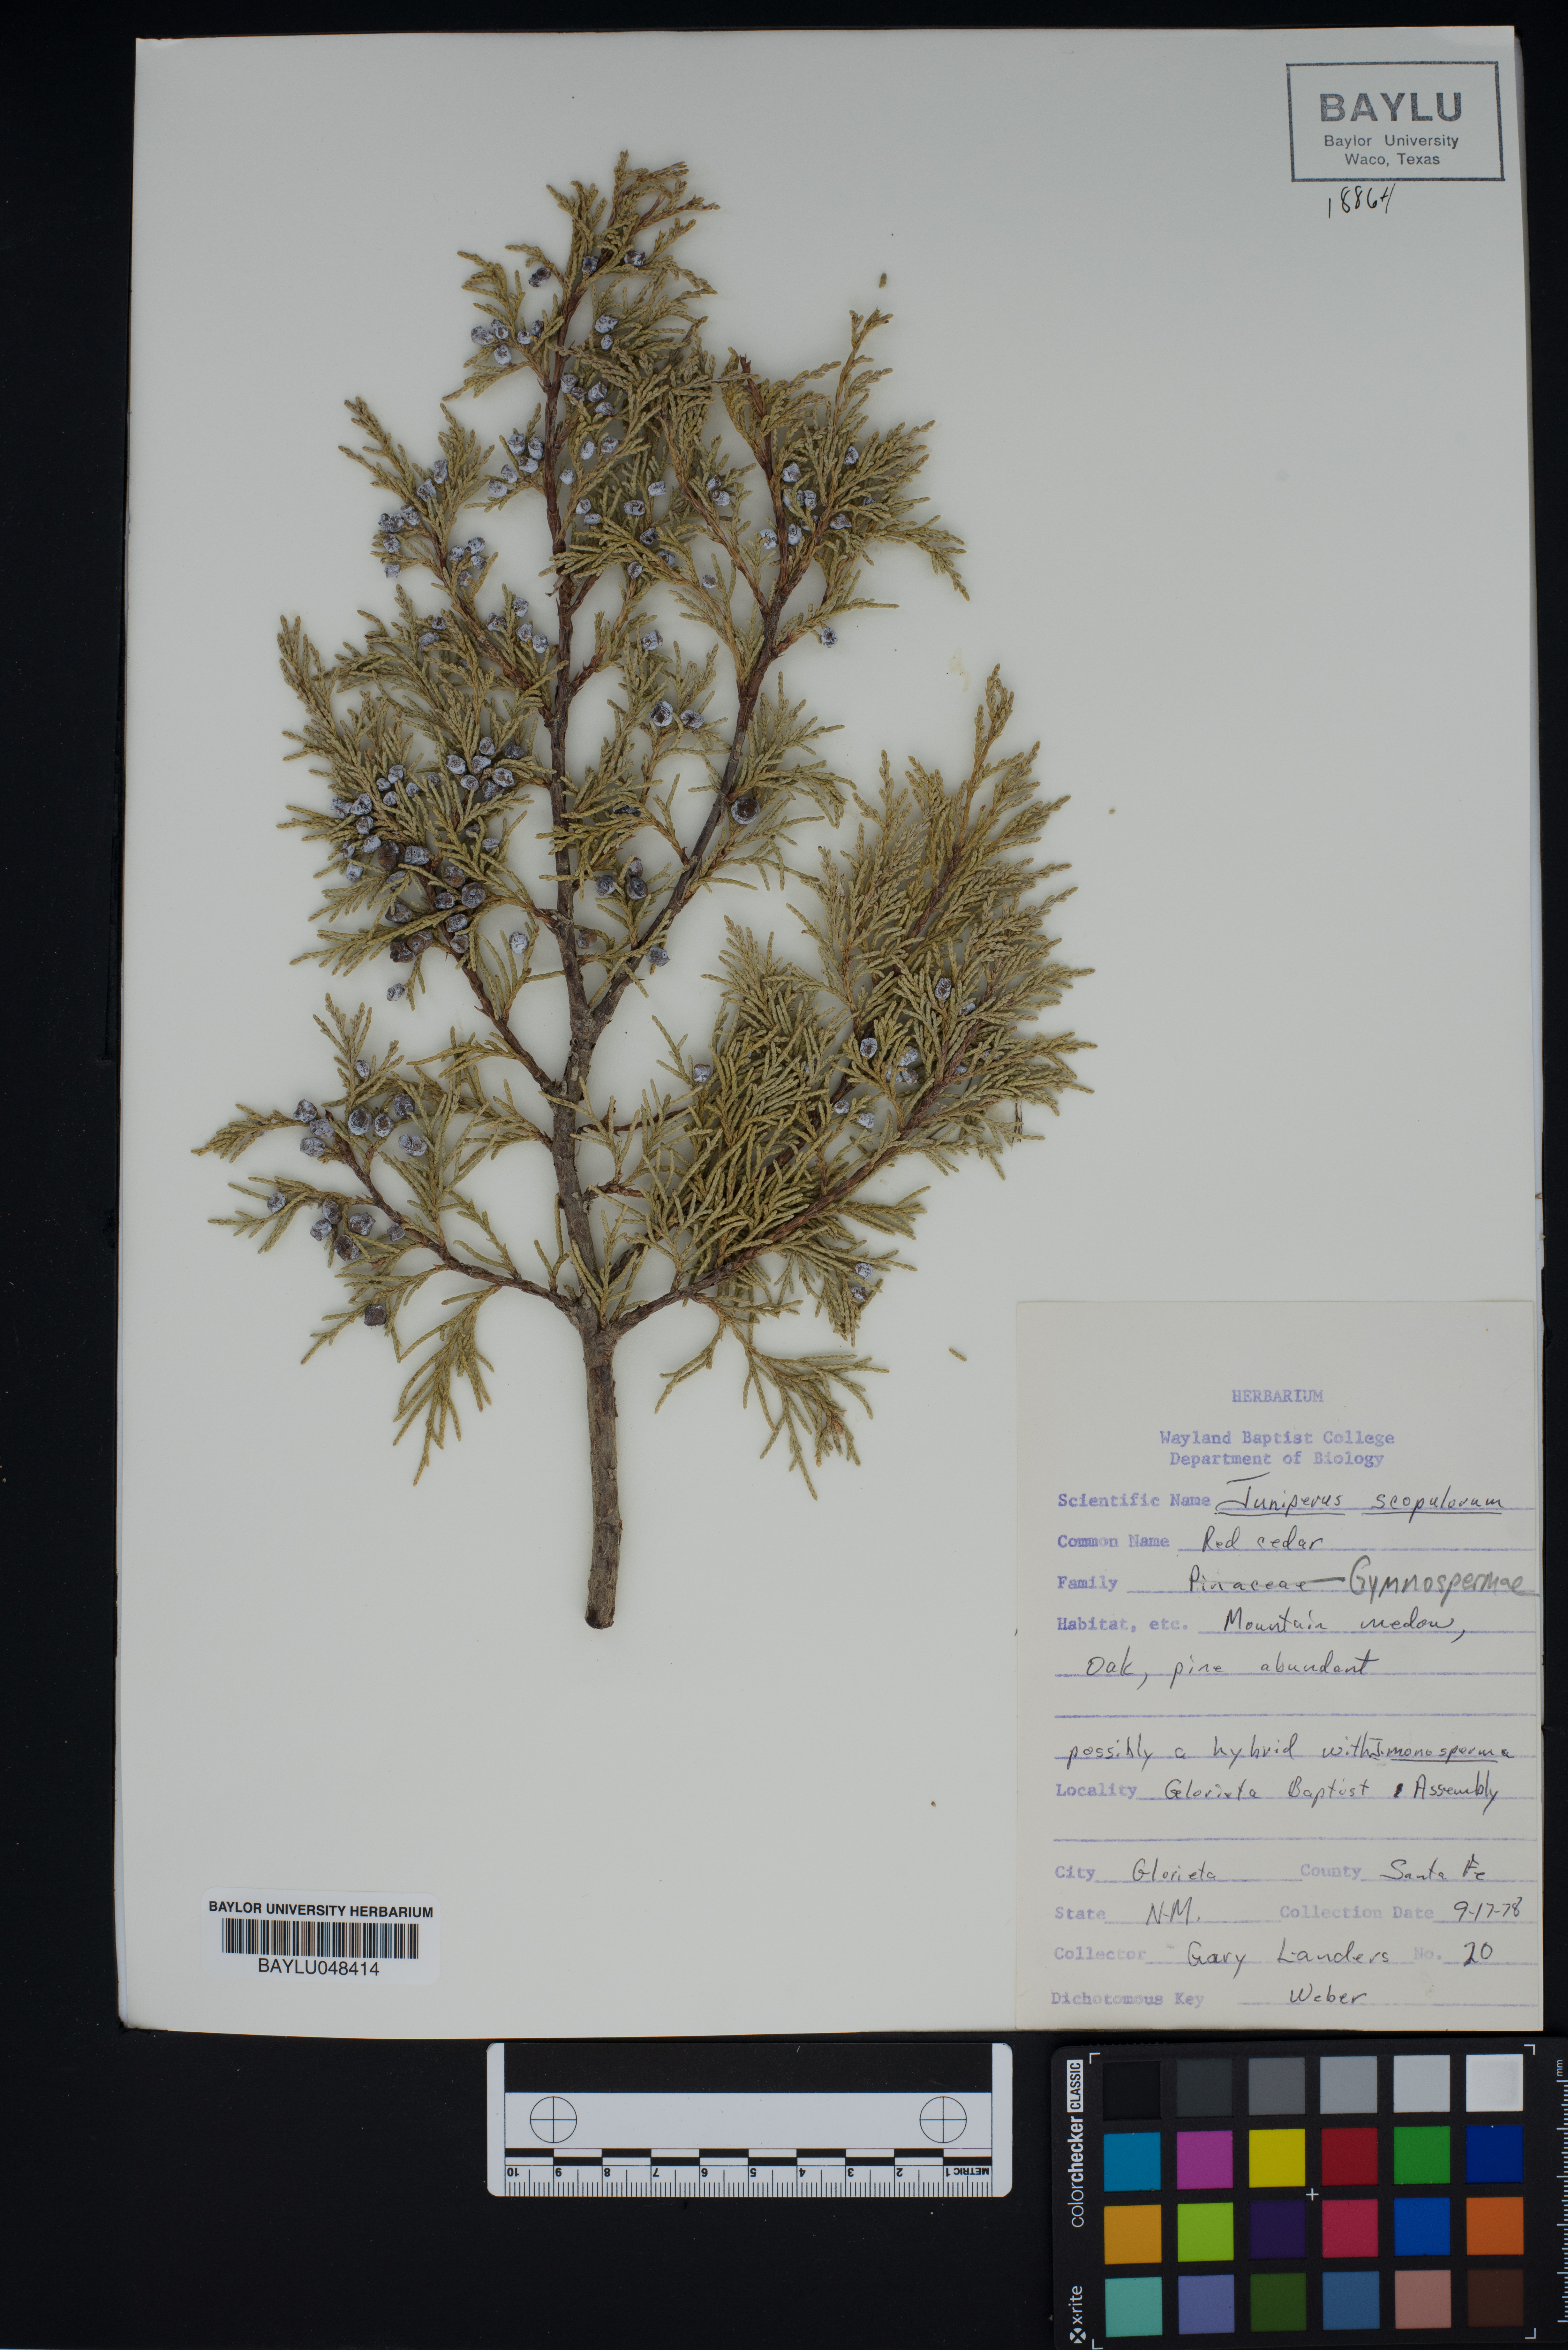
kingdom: Plantae
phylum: Tracheophyta
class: Pinopsida
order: Pinales
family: Cupressaceae
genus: Juniperus
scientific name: Juniperus scopulorum
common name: Rocky mountain juniper
